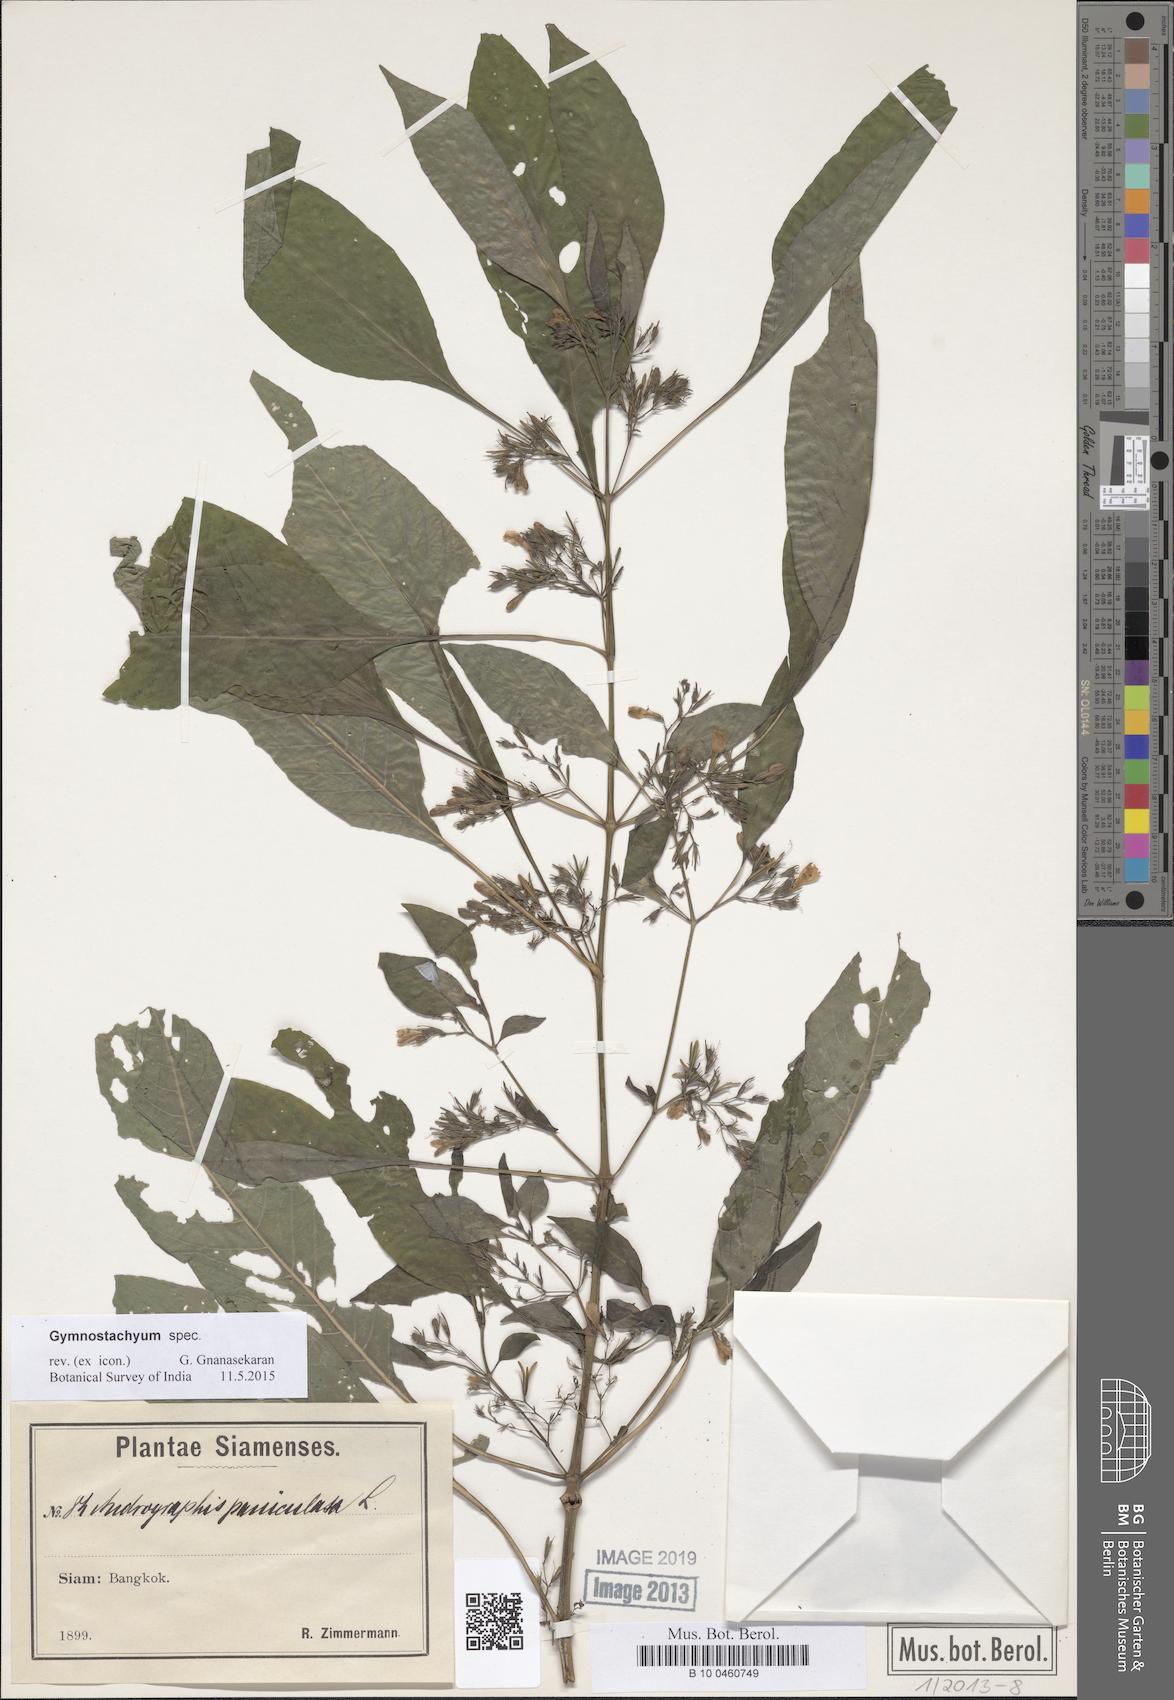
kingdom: Plantae
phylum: Tracheophyta
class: Magnoliopsida
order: Lamiales
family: Acanthaceae
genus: Gymnostachyum
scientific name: Gymnostachyum
